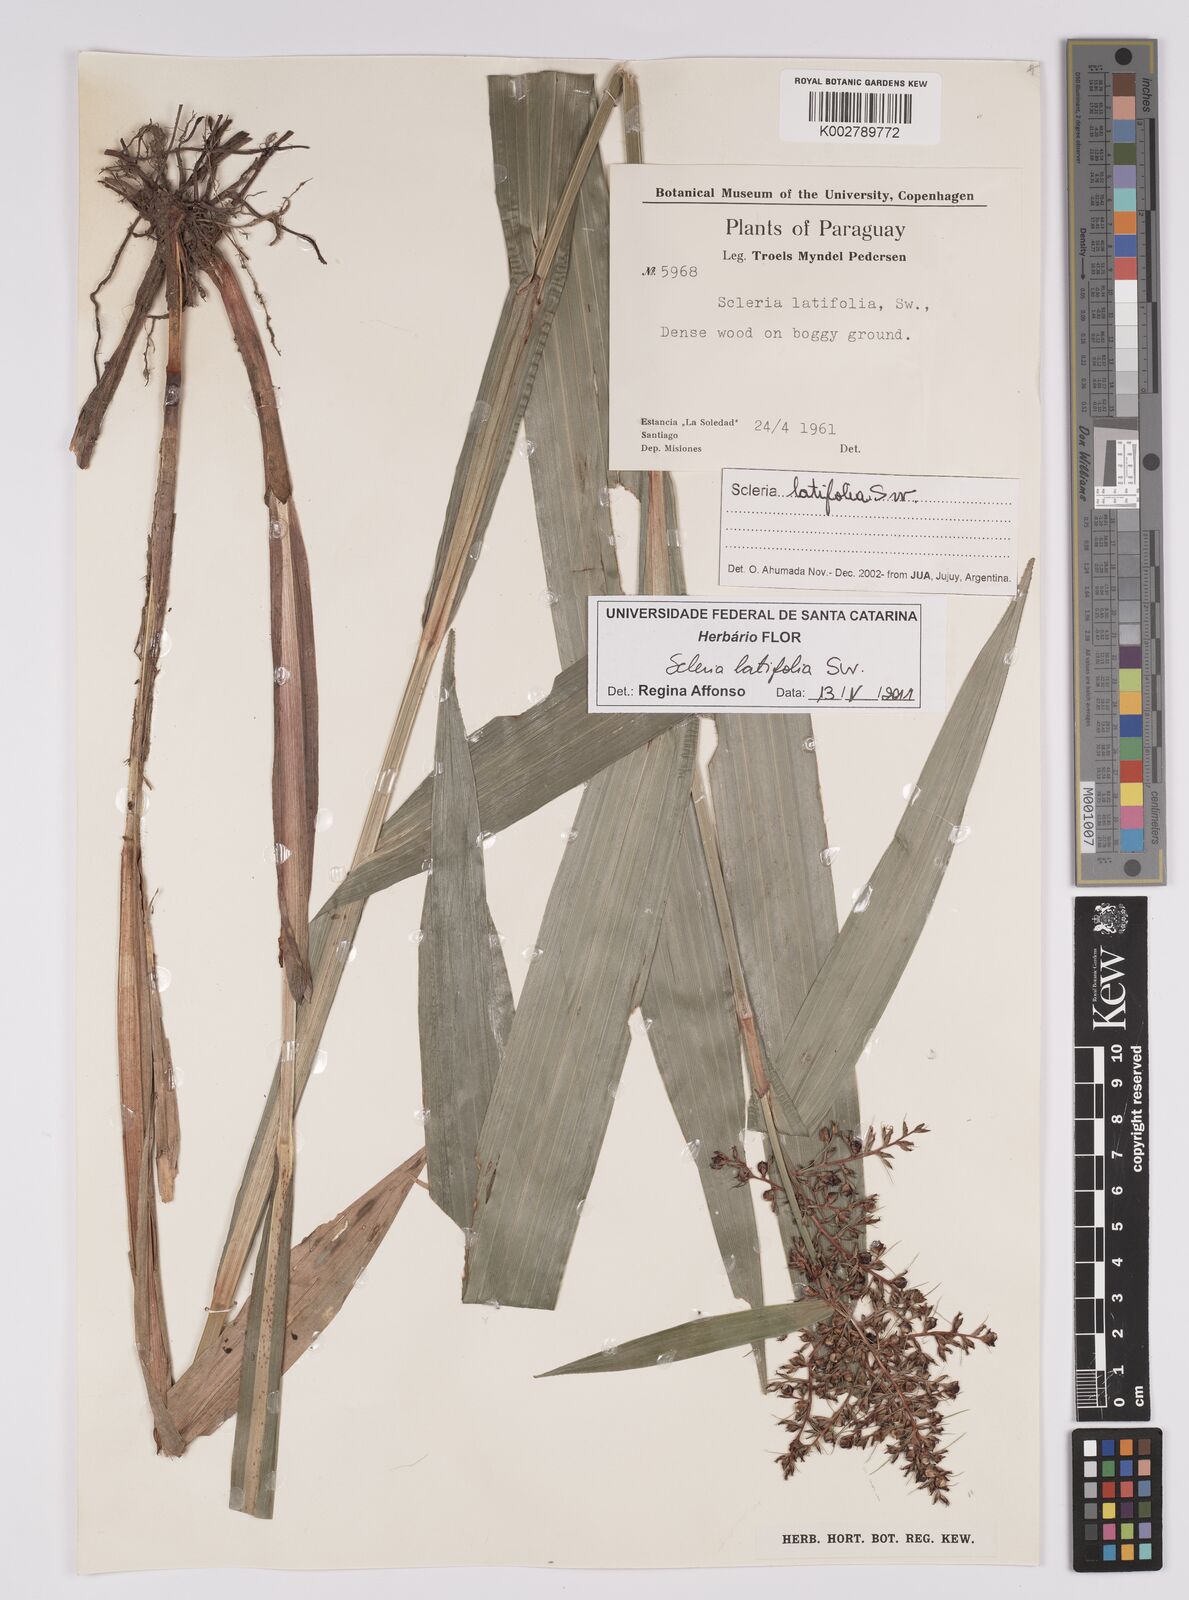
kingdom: Plantae
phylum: Tracheophyta
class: Liliopsida
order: Poales
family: Cyperaceae
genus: Scleria
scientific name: Scleria latifolia
